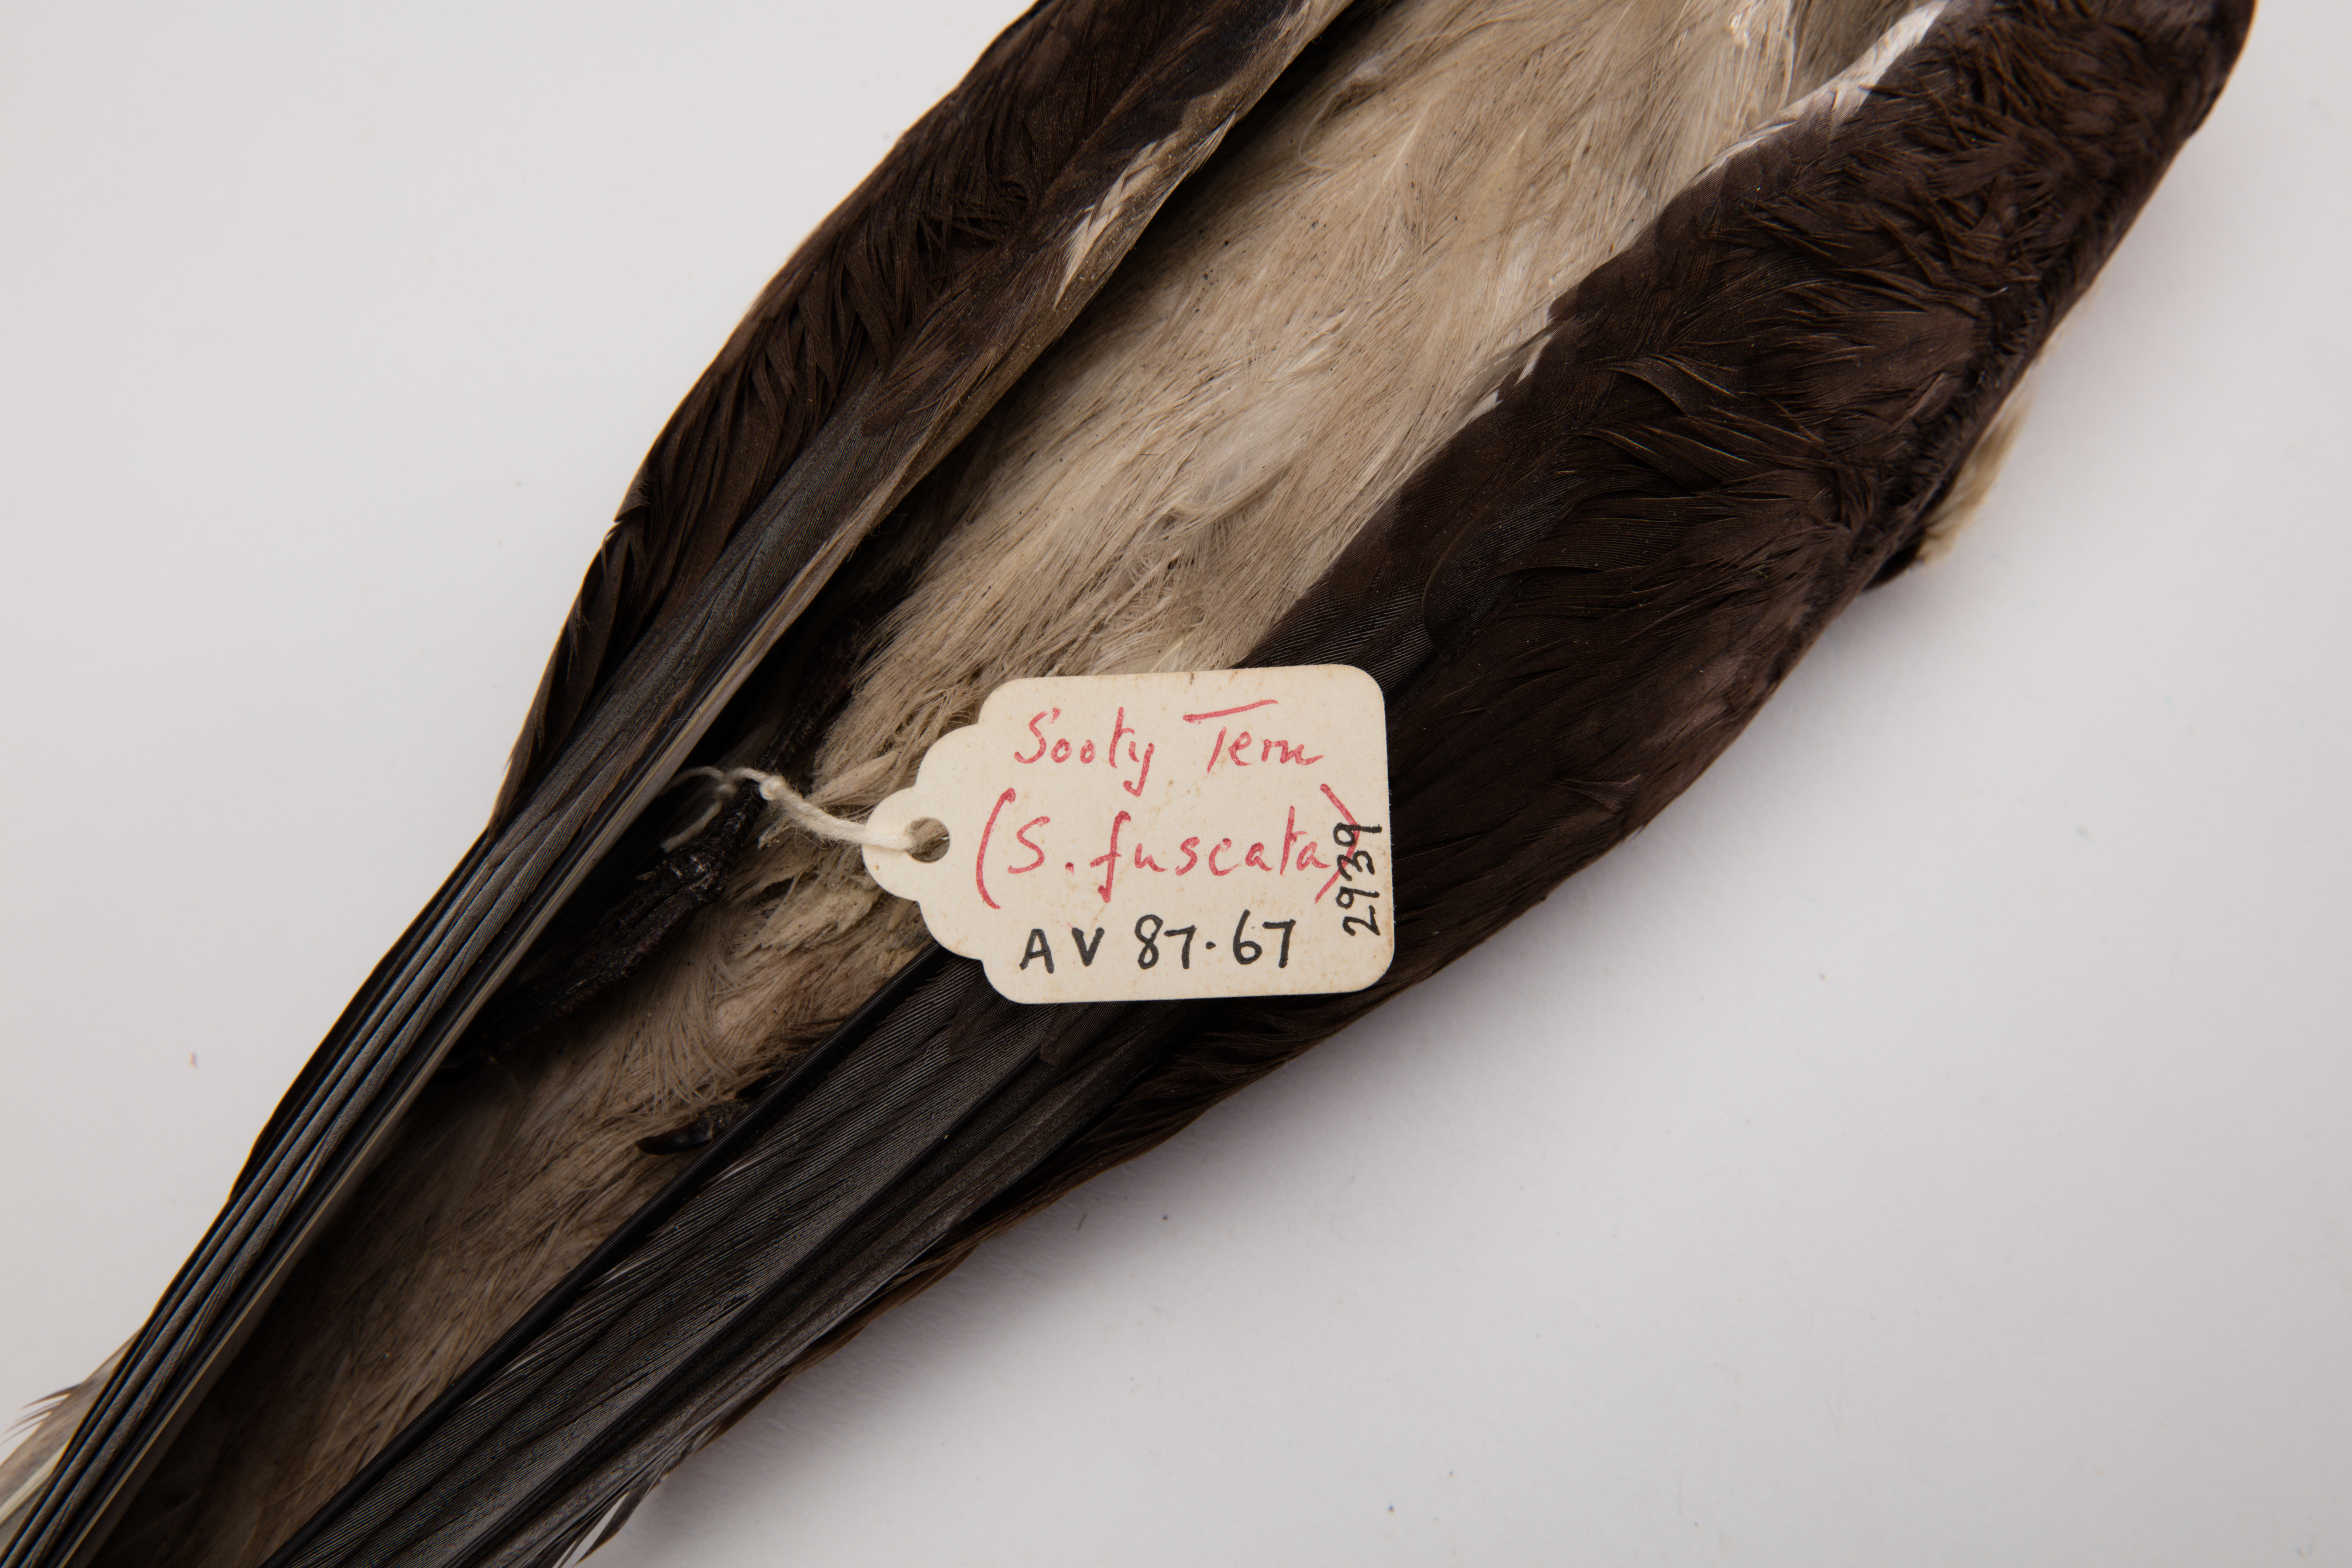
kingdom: Animalia
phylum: Chordata
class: Aves
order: Charadriiformes
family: Laridae
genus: Onychoprion
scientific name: Onychoprion fuscatus
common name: Sooty tern
